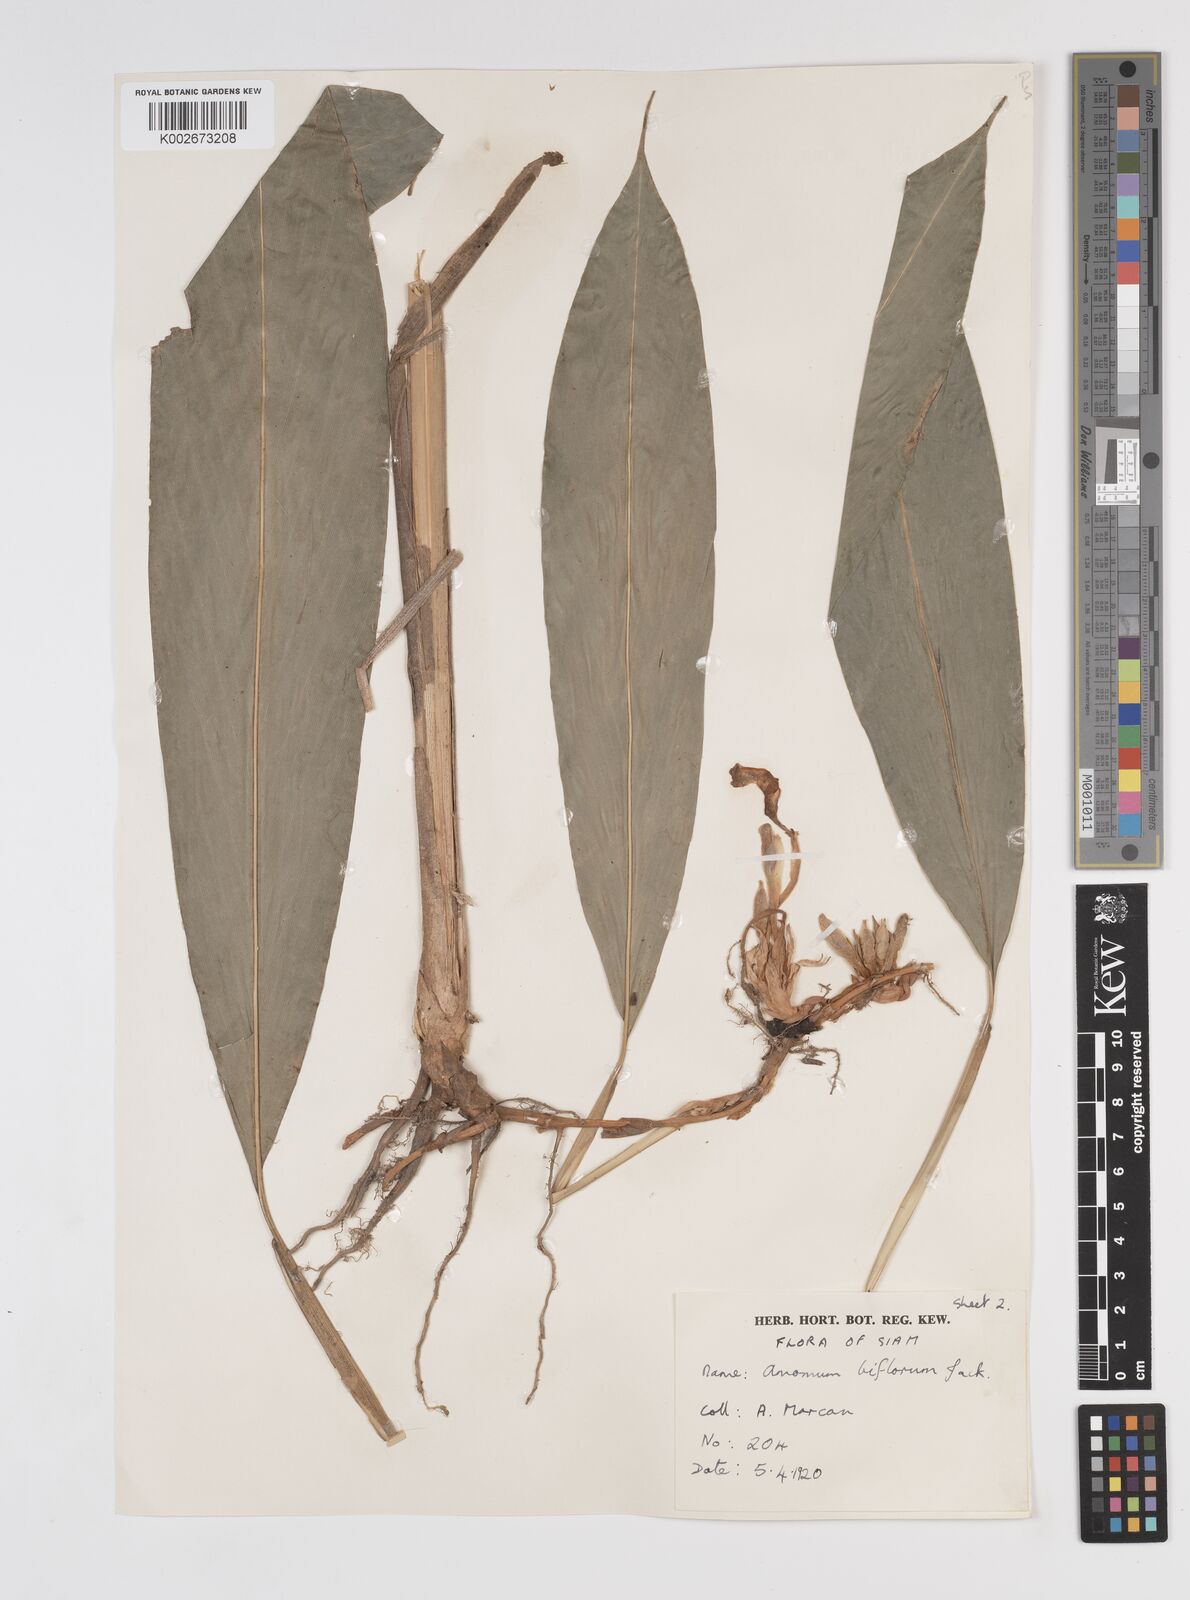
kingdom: Plantae
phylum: Tracheophyta
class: Liliopsida
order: Zingiberales
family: Zingiberaceae
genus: Wurfbainia
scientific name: Wurfbainia biflora
